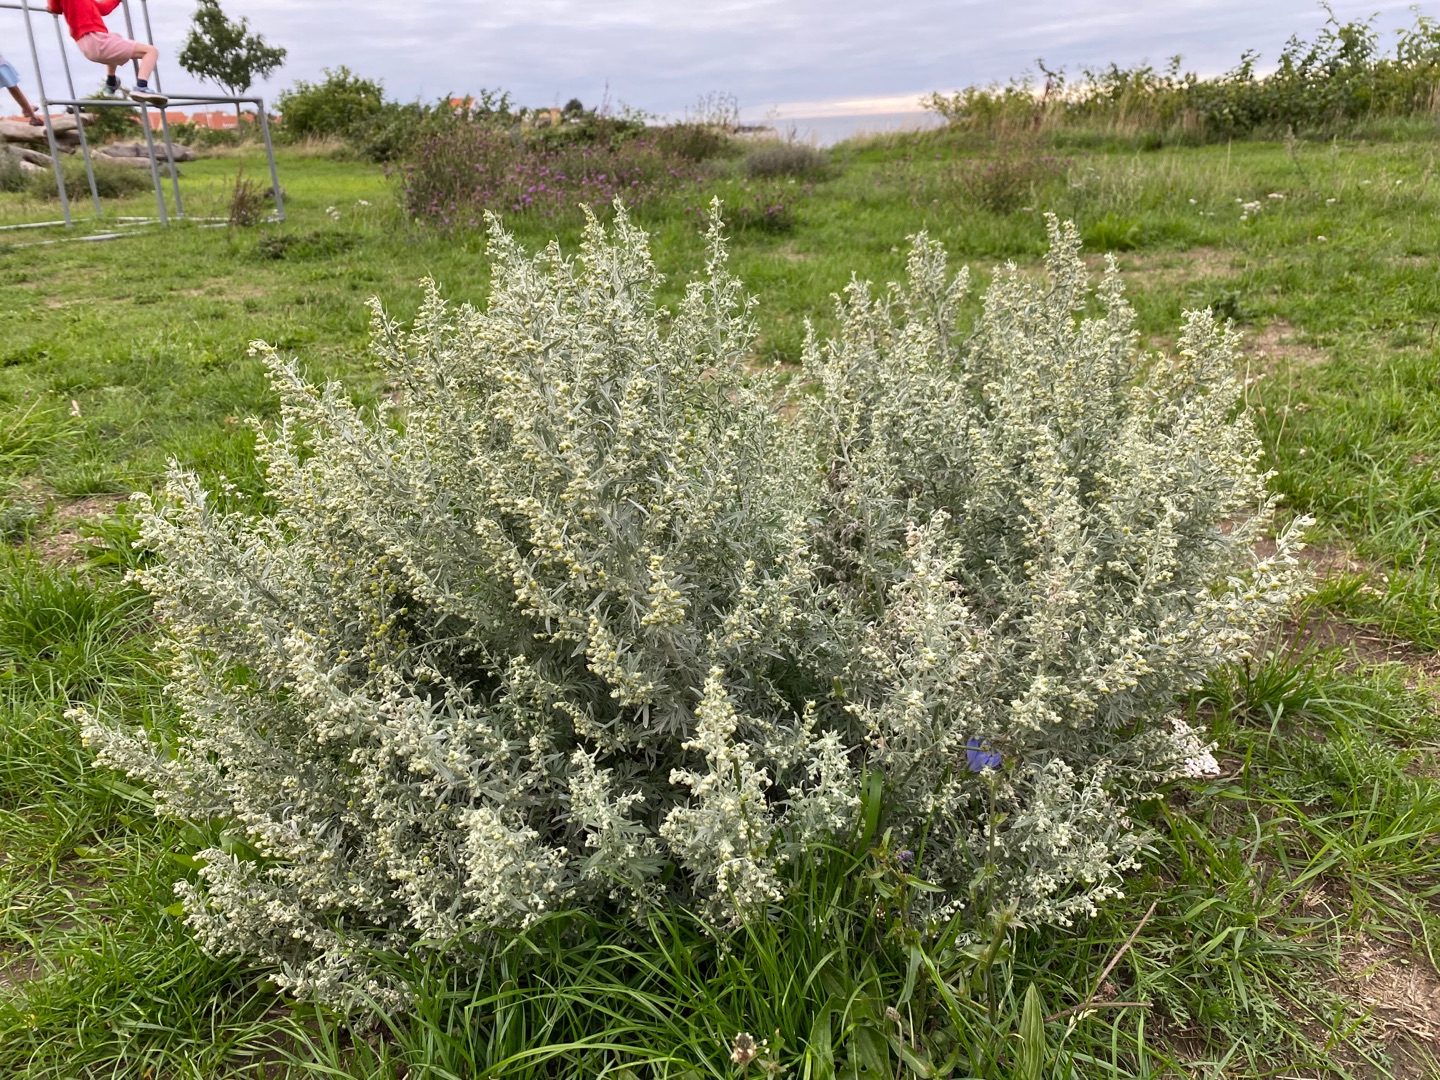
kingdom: Plantae
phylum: Tracheophyta
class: Magnoliopsida
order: Asterales
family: Asteraceae
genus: Artemisia
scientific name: Artemisia absinthium
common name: Havemalurt
